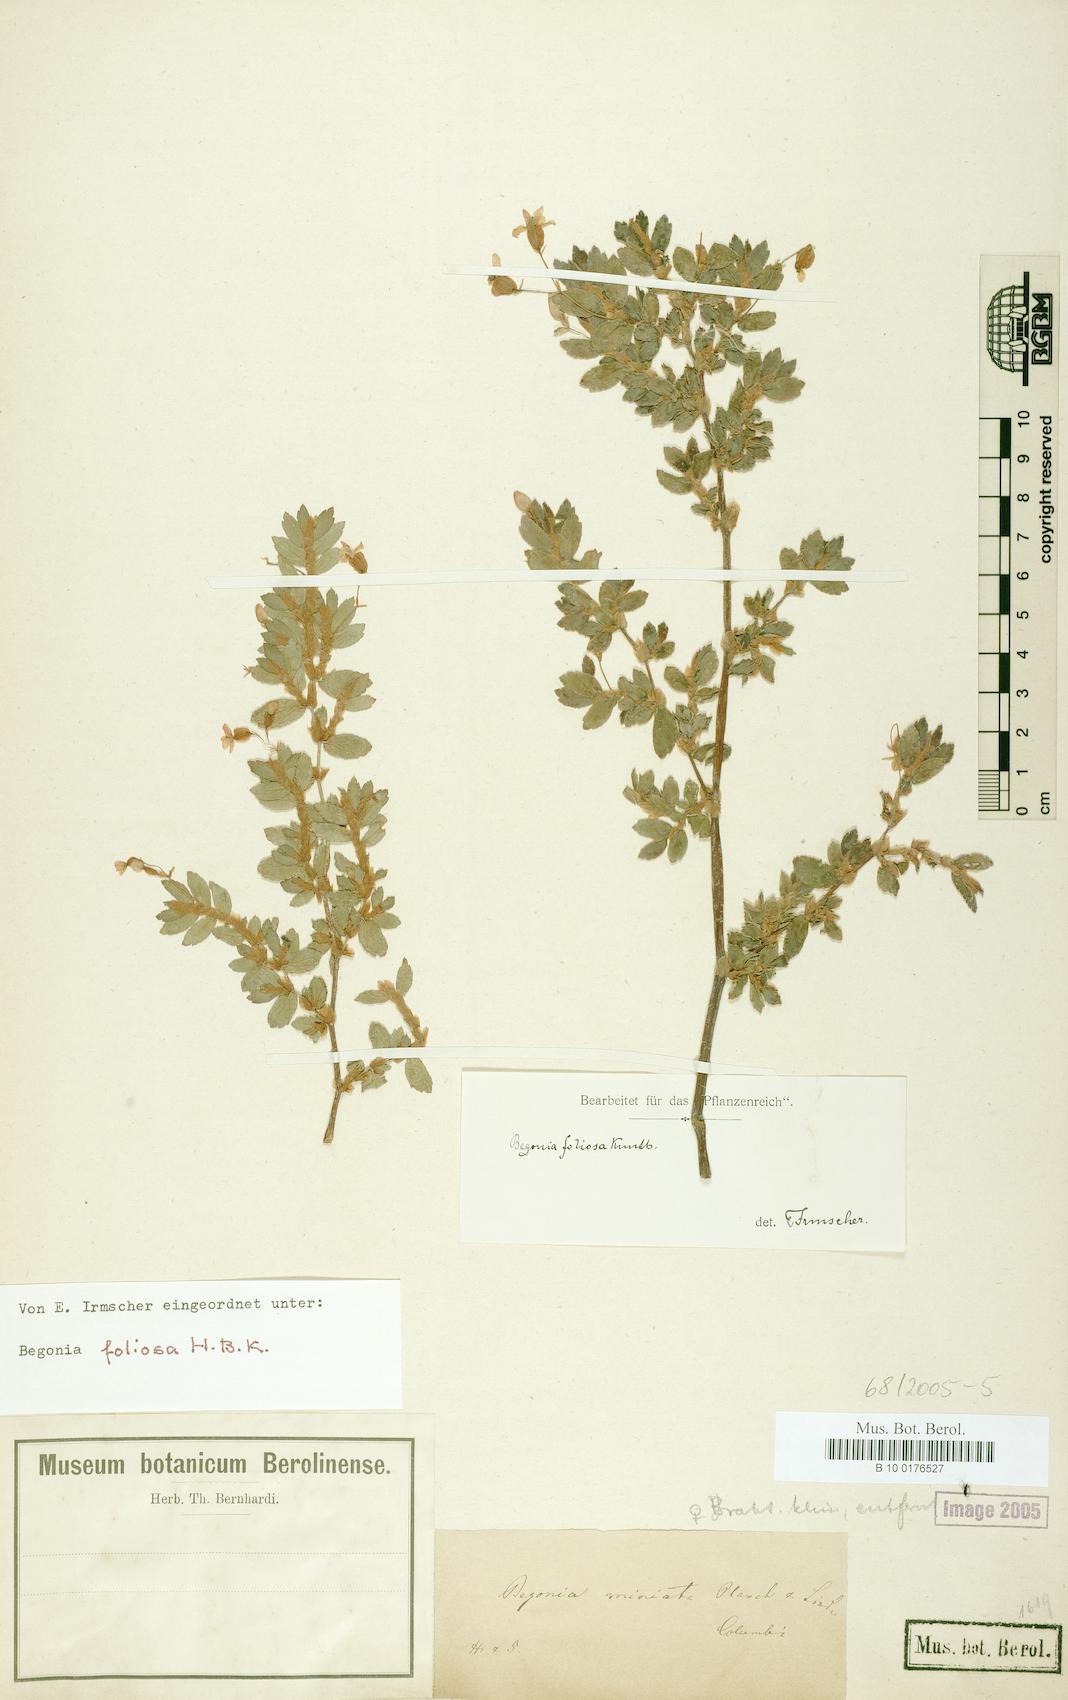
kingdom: Plantae
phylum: Tracheophyta
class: Magnoliopsida
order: Cucurbitales
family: Begoniaceae
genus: Begonia
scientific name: Begonia foliosa
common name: Fern begonia
